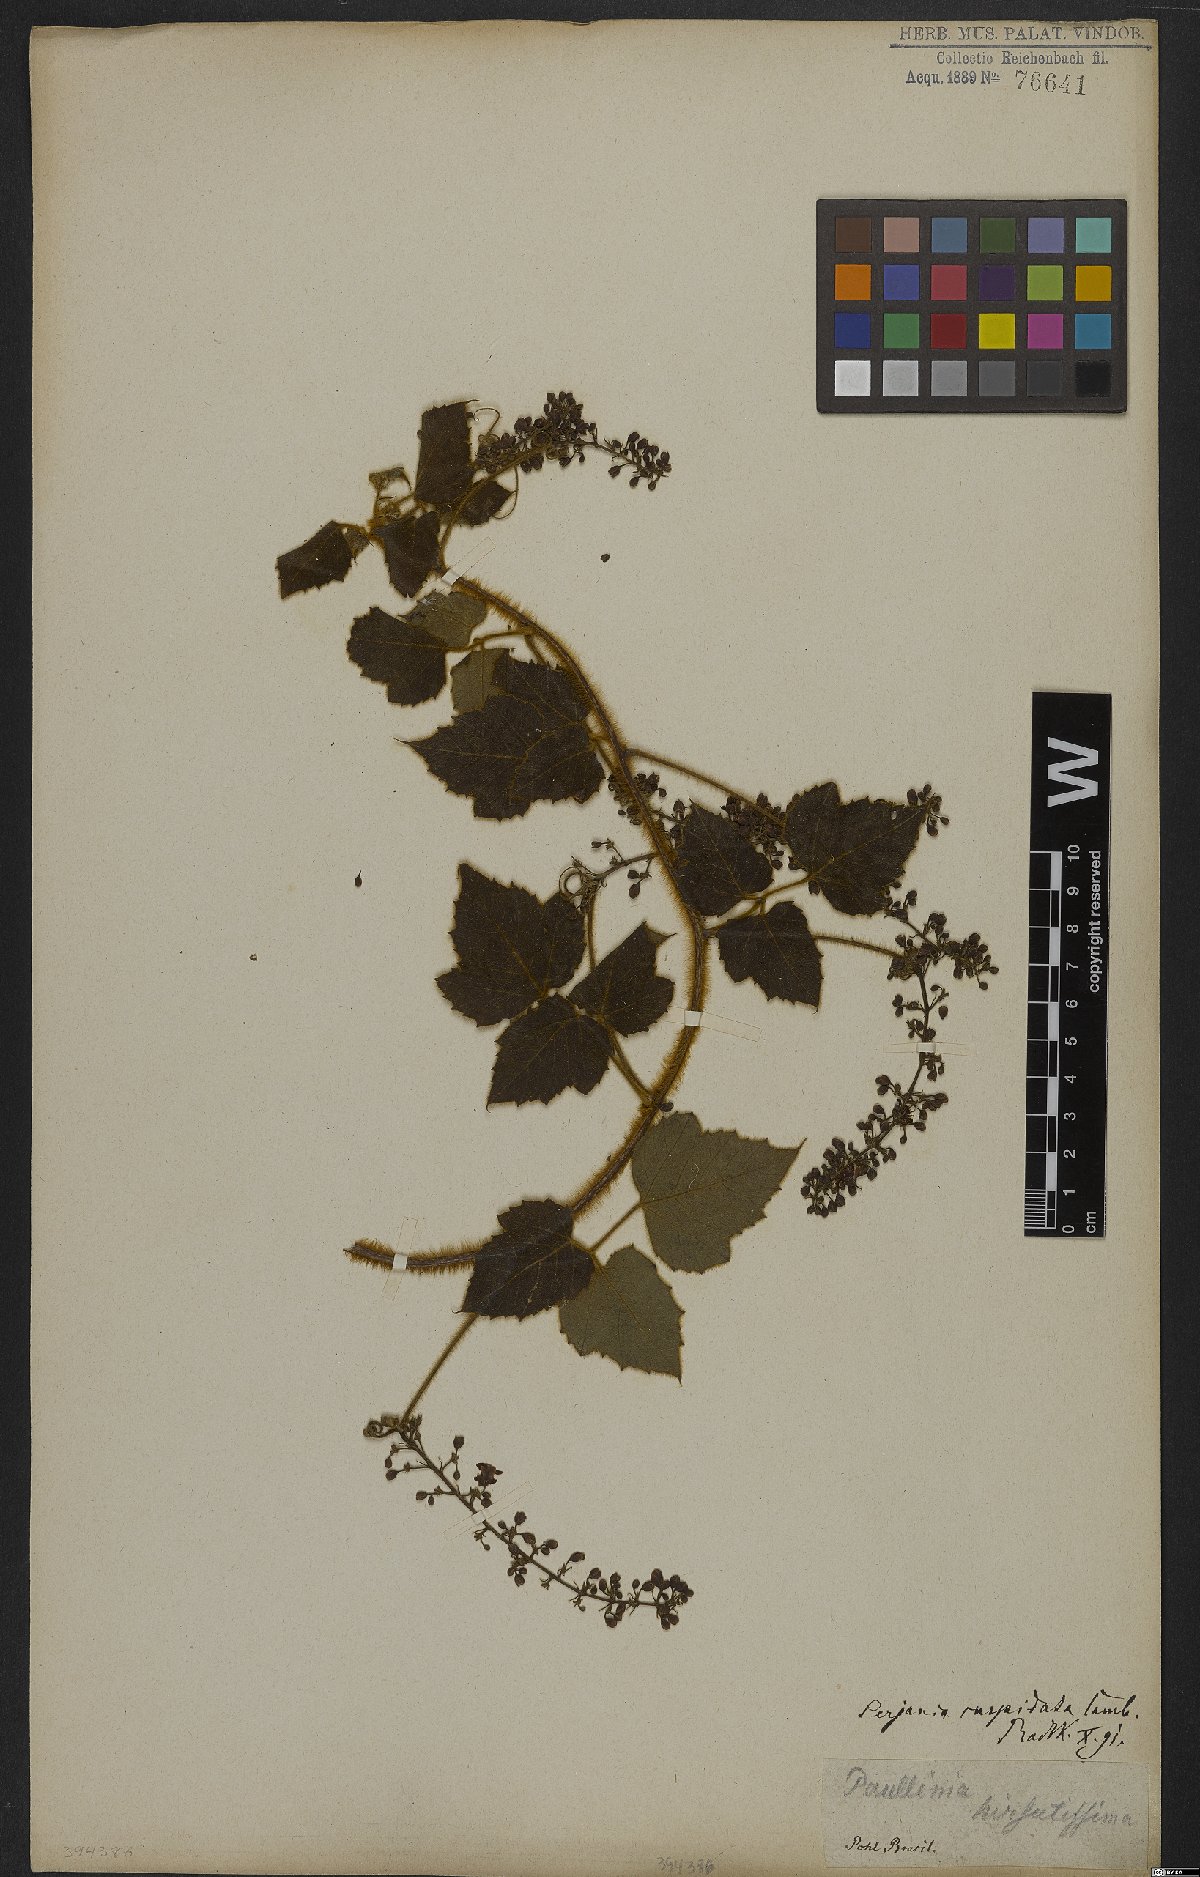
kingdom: Plantae
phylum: Tracheophyta
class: Magnoliopsida
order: Sapindales
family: Sapindaceae
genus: Serjania
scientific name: Serjania ferruginea
